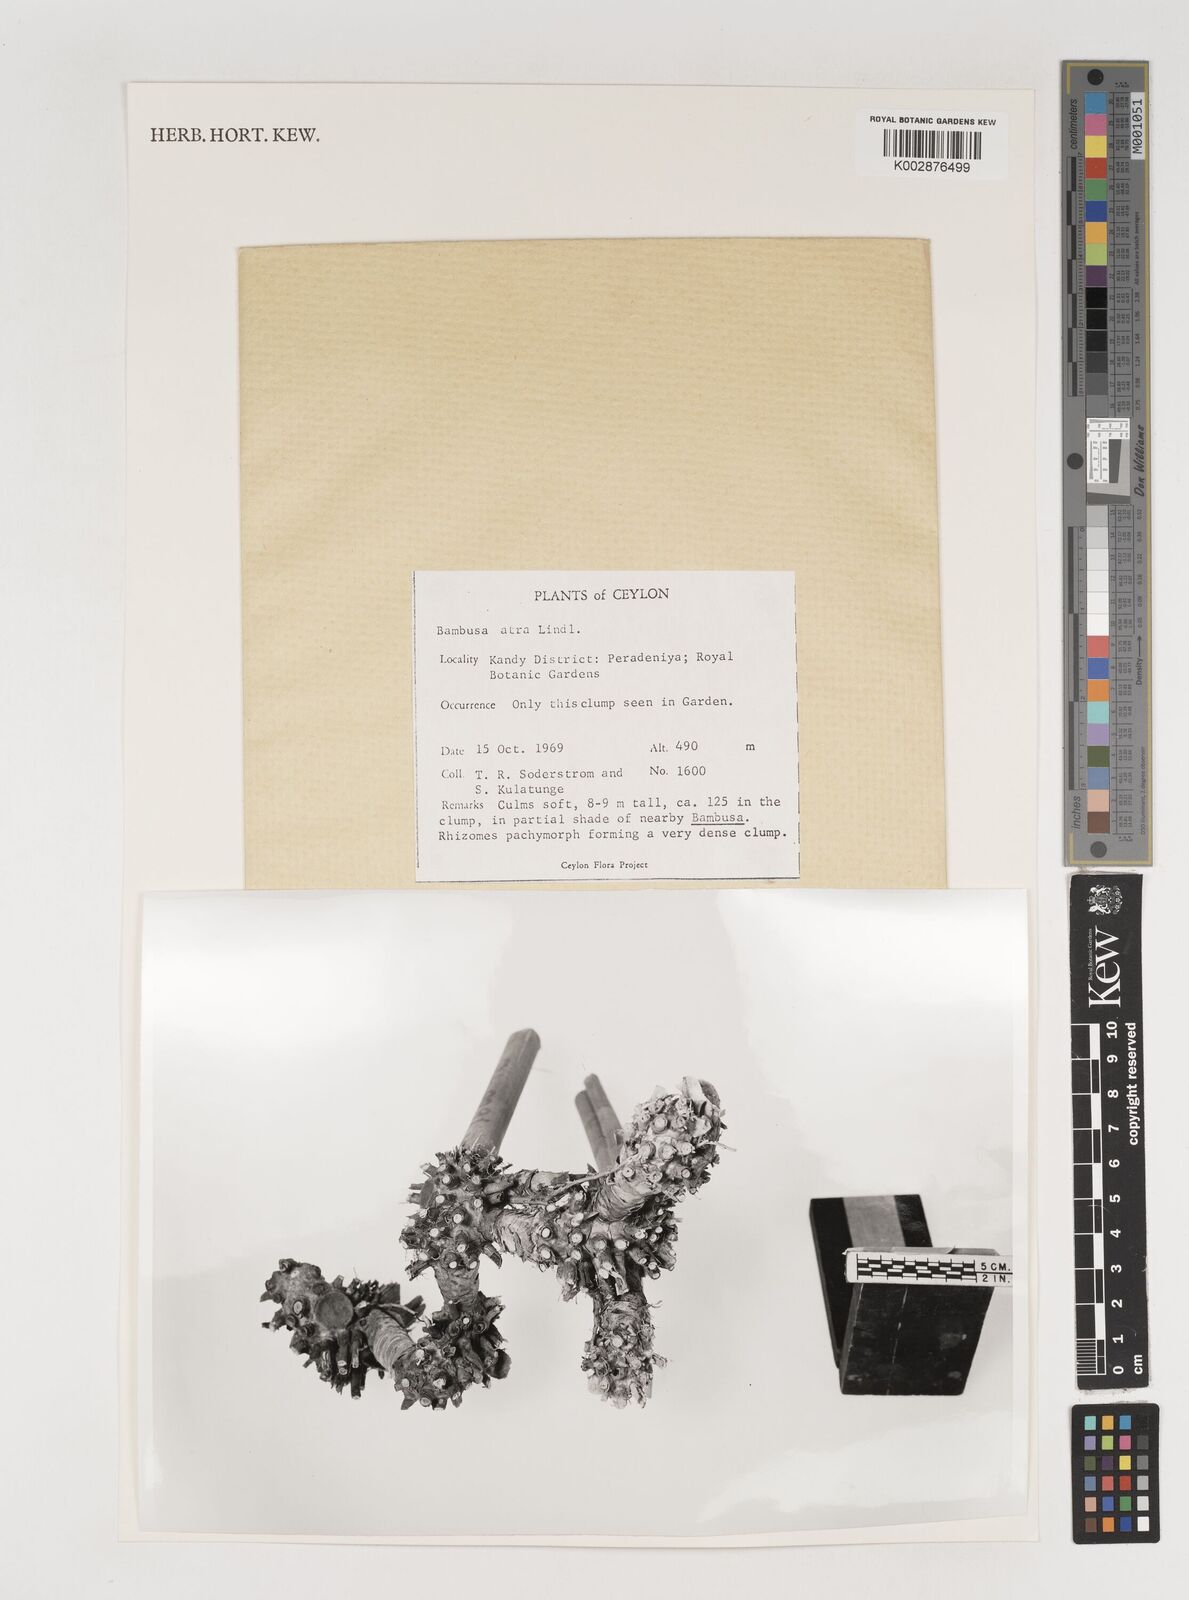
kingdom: Plantae
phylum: Tracheophyta
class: Liliopsida
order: Poales
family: Poaceae
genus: Bambusa
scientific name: Bambusa
